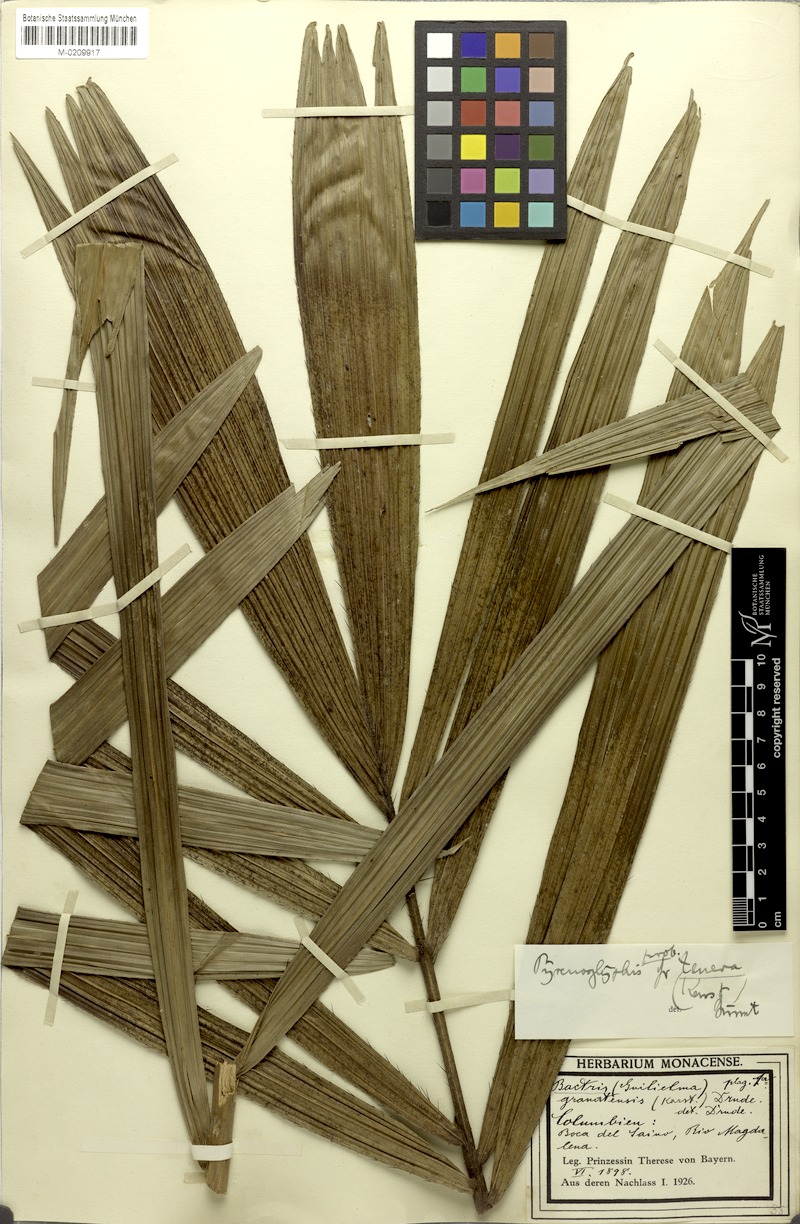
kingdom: Plantae
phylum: Tracheophyta
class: Liliopsida
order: Arecales
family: Arecaceae
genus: Bactris
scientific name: Bactris brongniartii
